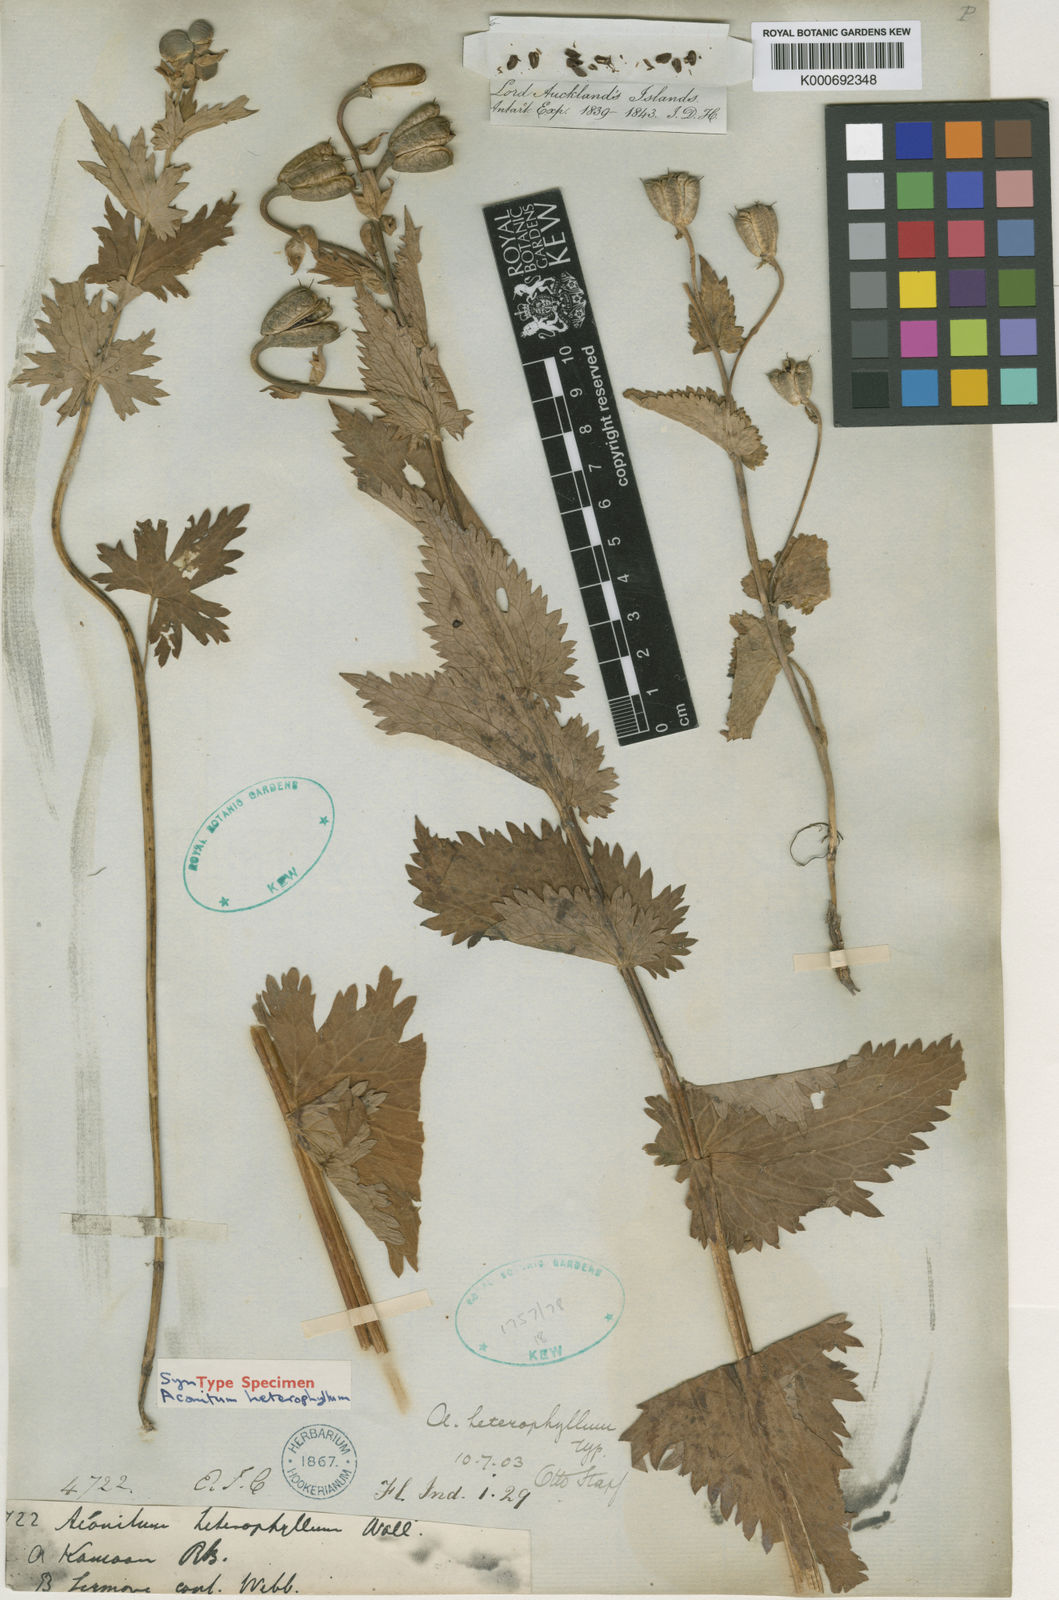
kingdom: Plantae
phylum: Tracheophyta
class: Magnoliopsida
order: Ranunculales
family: Ranunculaceae
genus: Aconitum
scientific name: Aconitum
